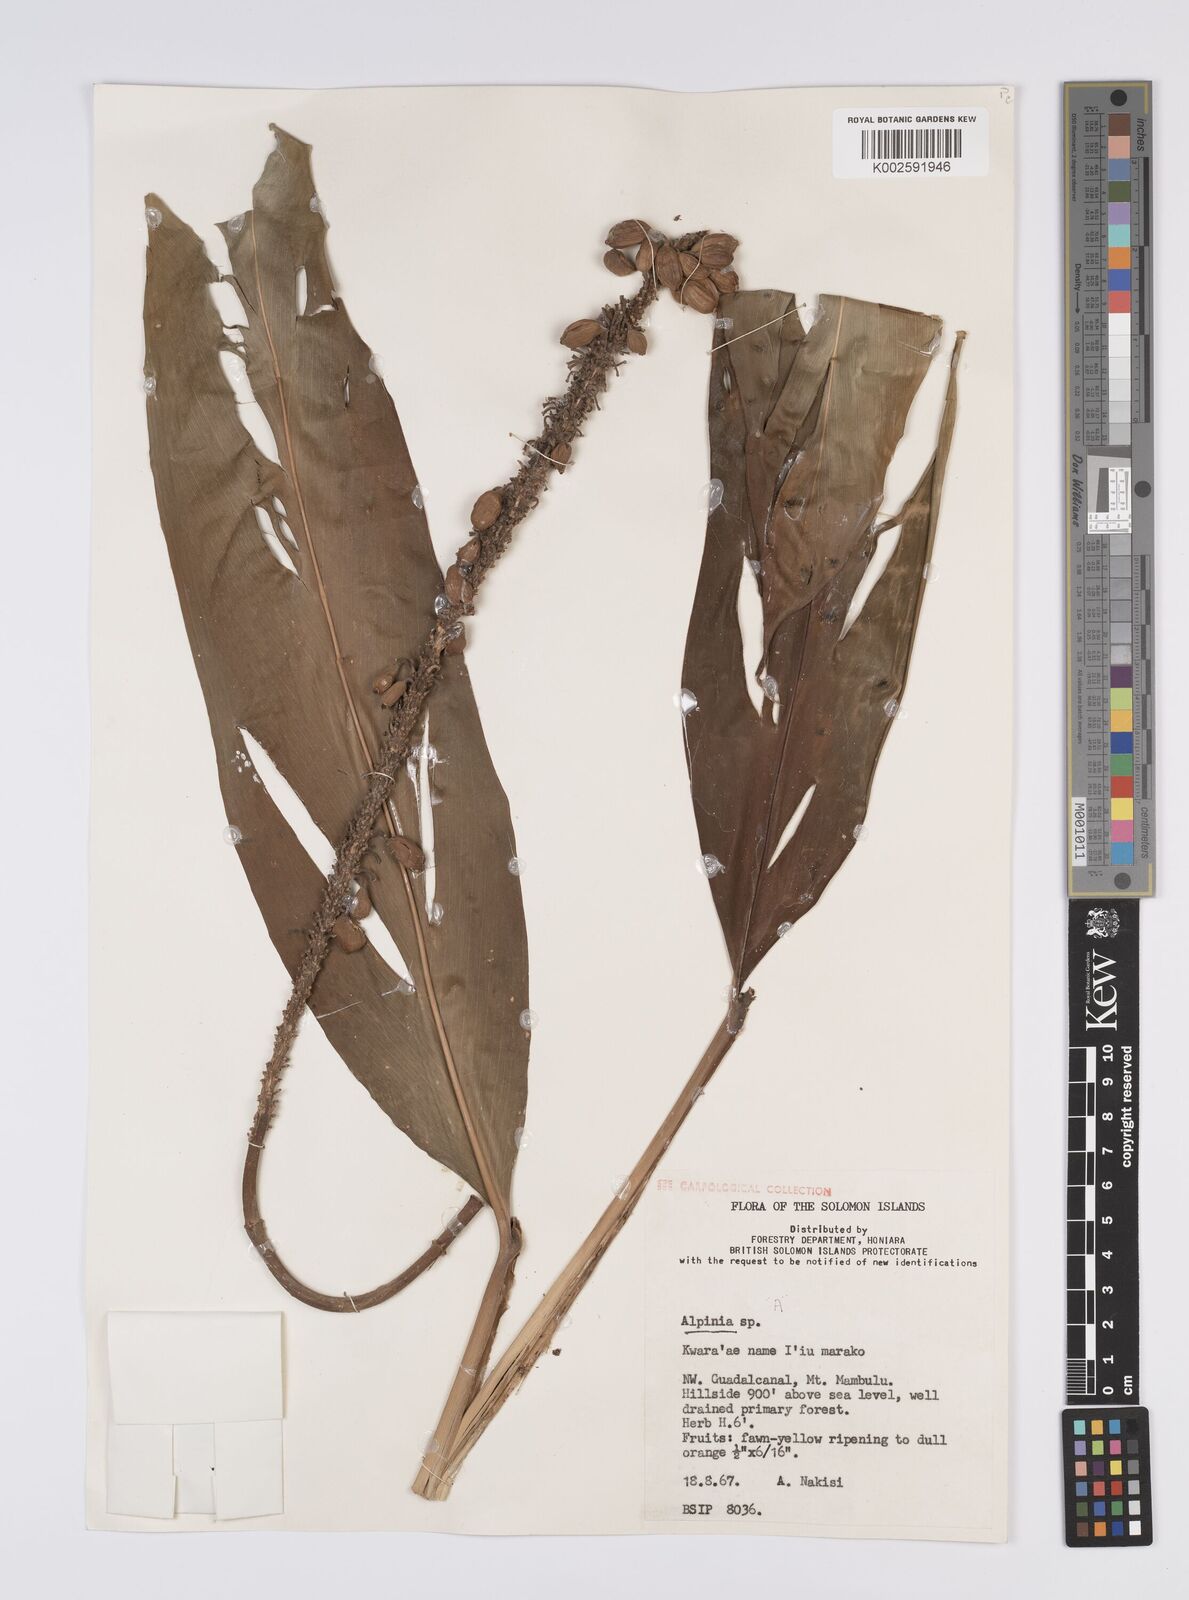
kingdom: Plantae
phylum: Tracheophyta
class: Liliopsida
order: Zingiberales
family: Zingiberaceae
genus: Alpinia
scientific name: Alpinia
